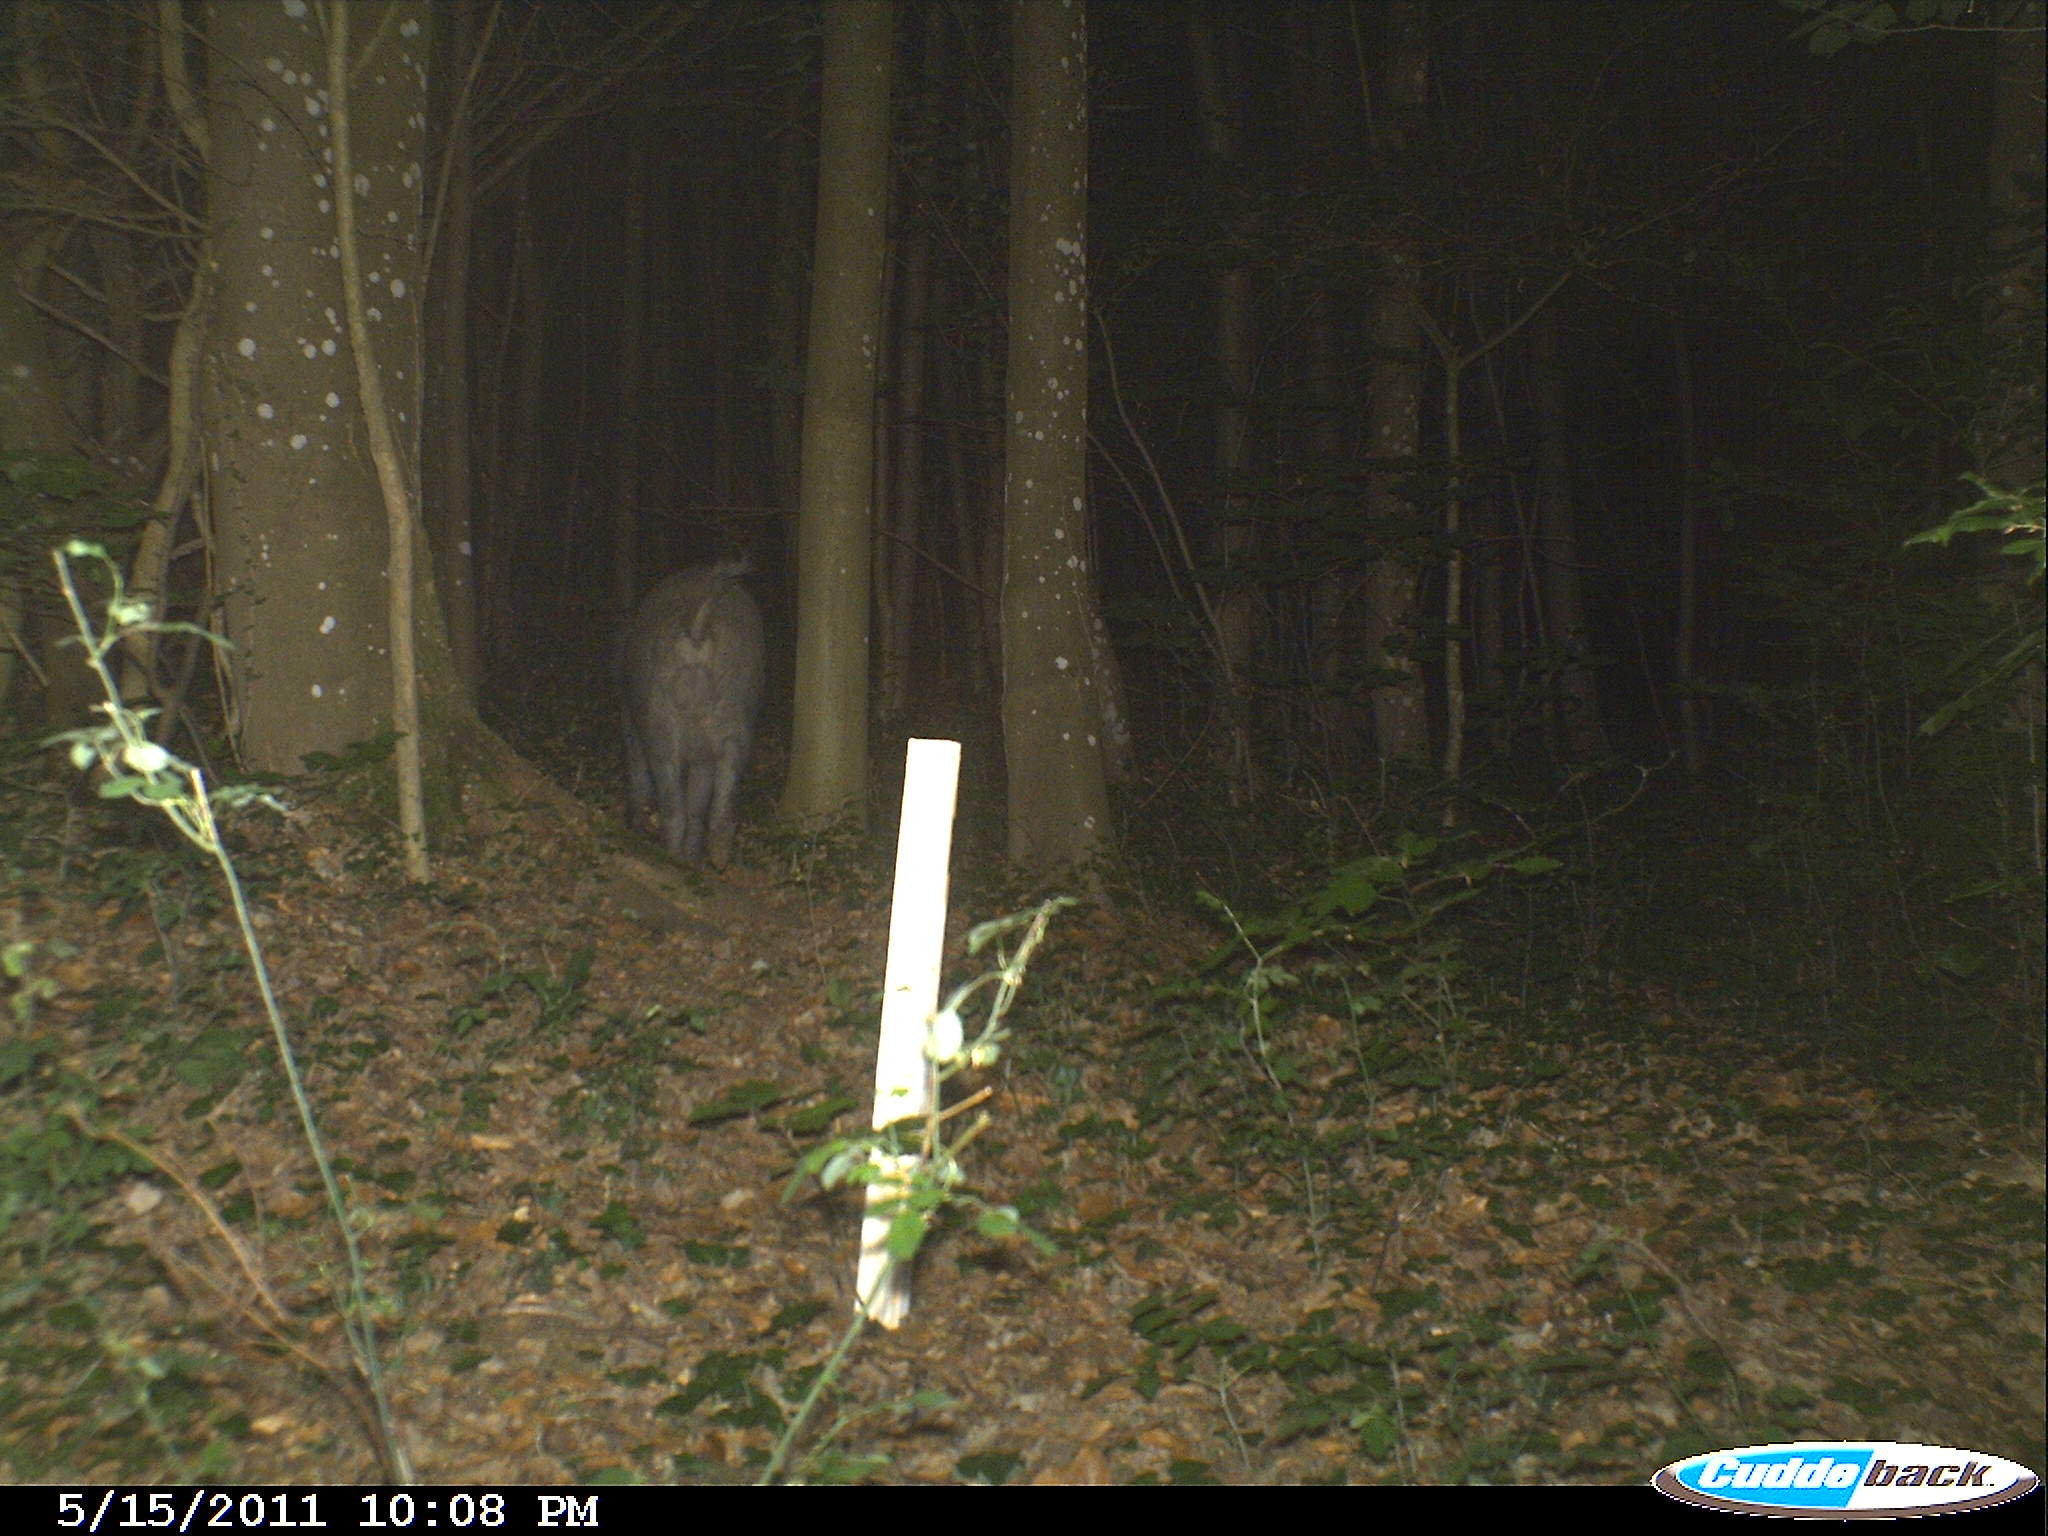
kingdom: Animalia
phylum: Chordata
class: Mammalia
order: Artiodactyla
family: Suidae
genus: Sus
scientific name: Sus scrofa
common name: Wild boar
